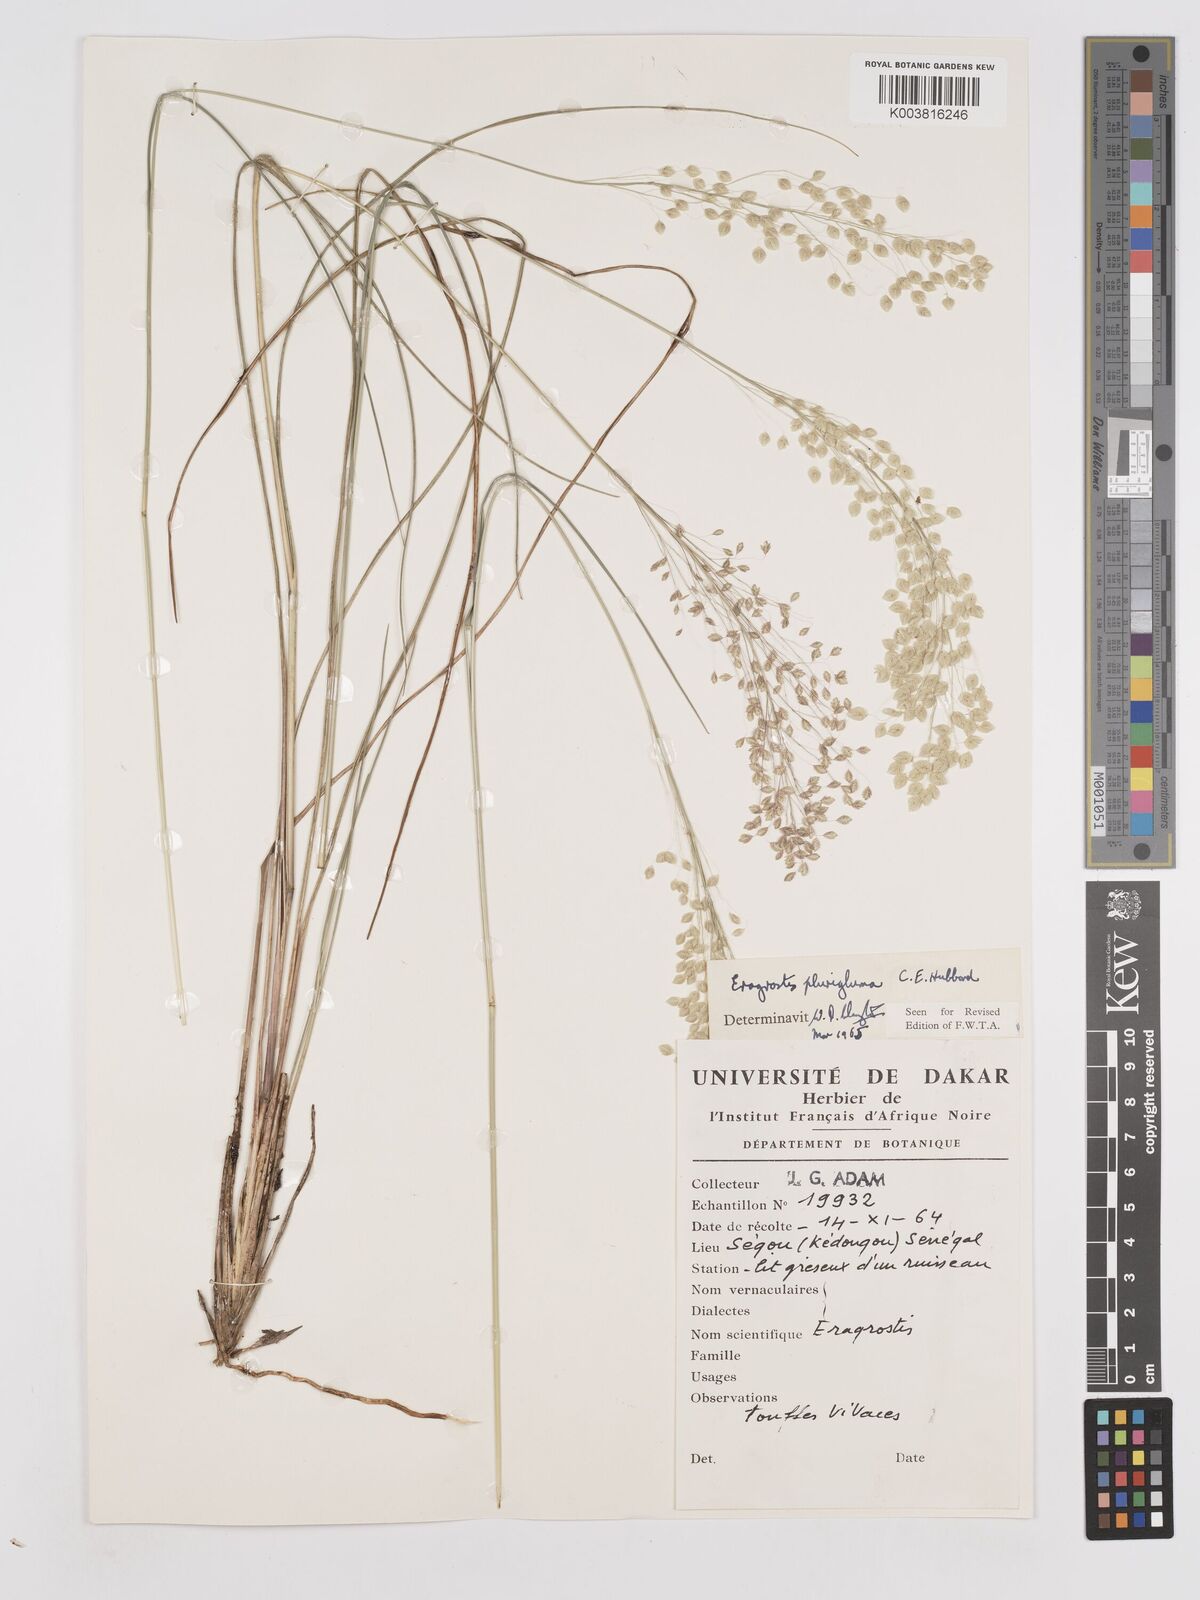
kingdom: Plantae
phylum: Tracheophyta
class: Liliopsida
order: Poales
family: Poaceae
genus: Eragrostis
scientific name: Eragrostis plurigluma
